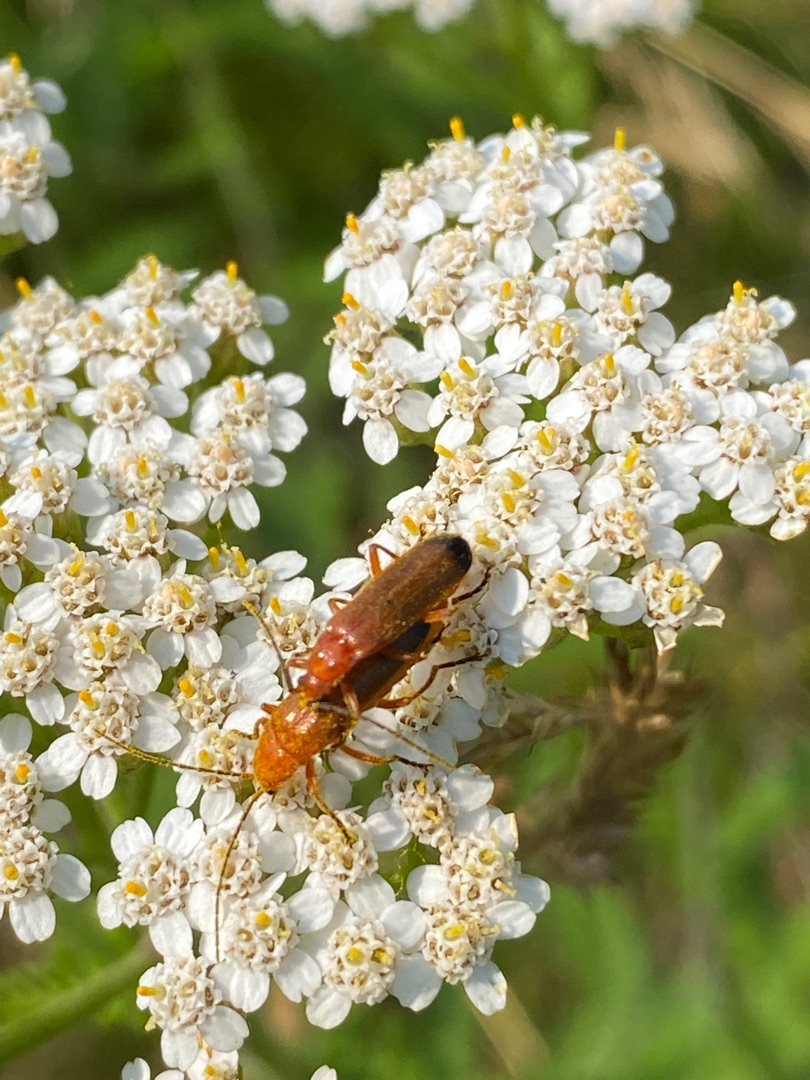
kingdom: Animalia
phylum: Arthropoda
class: Insecta
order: Coleoptera
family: Cantharidae
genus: Rhagonycha
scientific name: Rhagonycha fulva
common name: Præstebille
